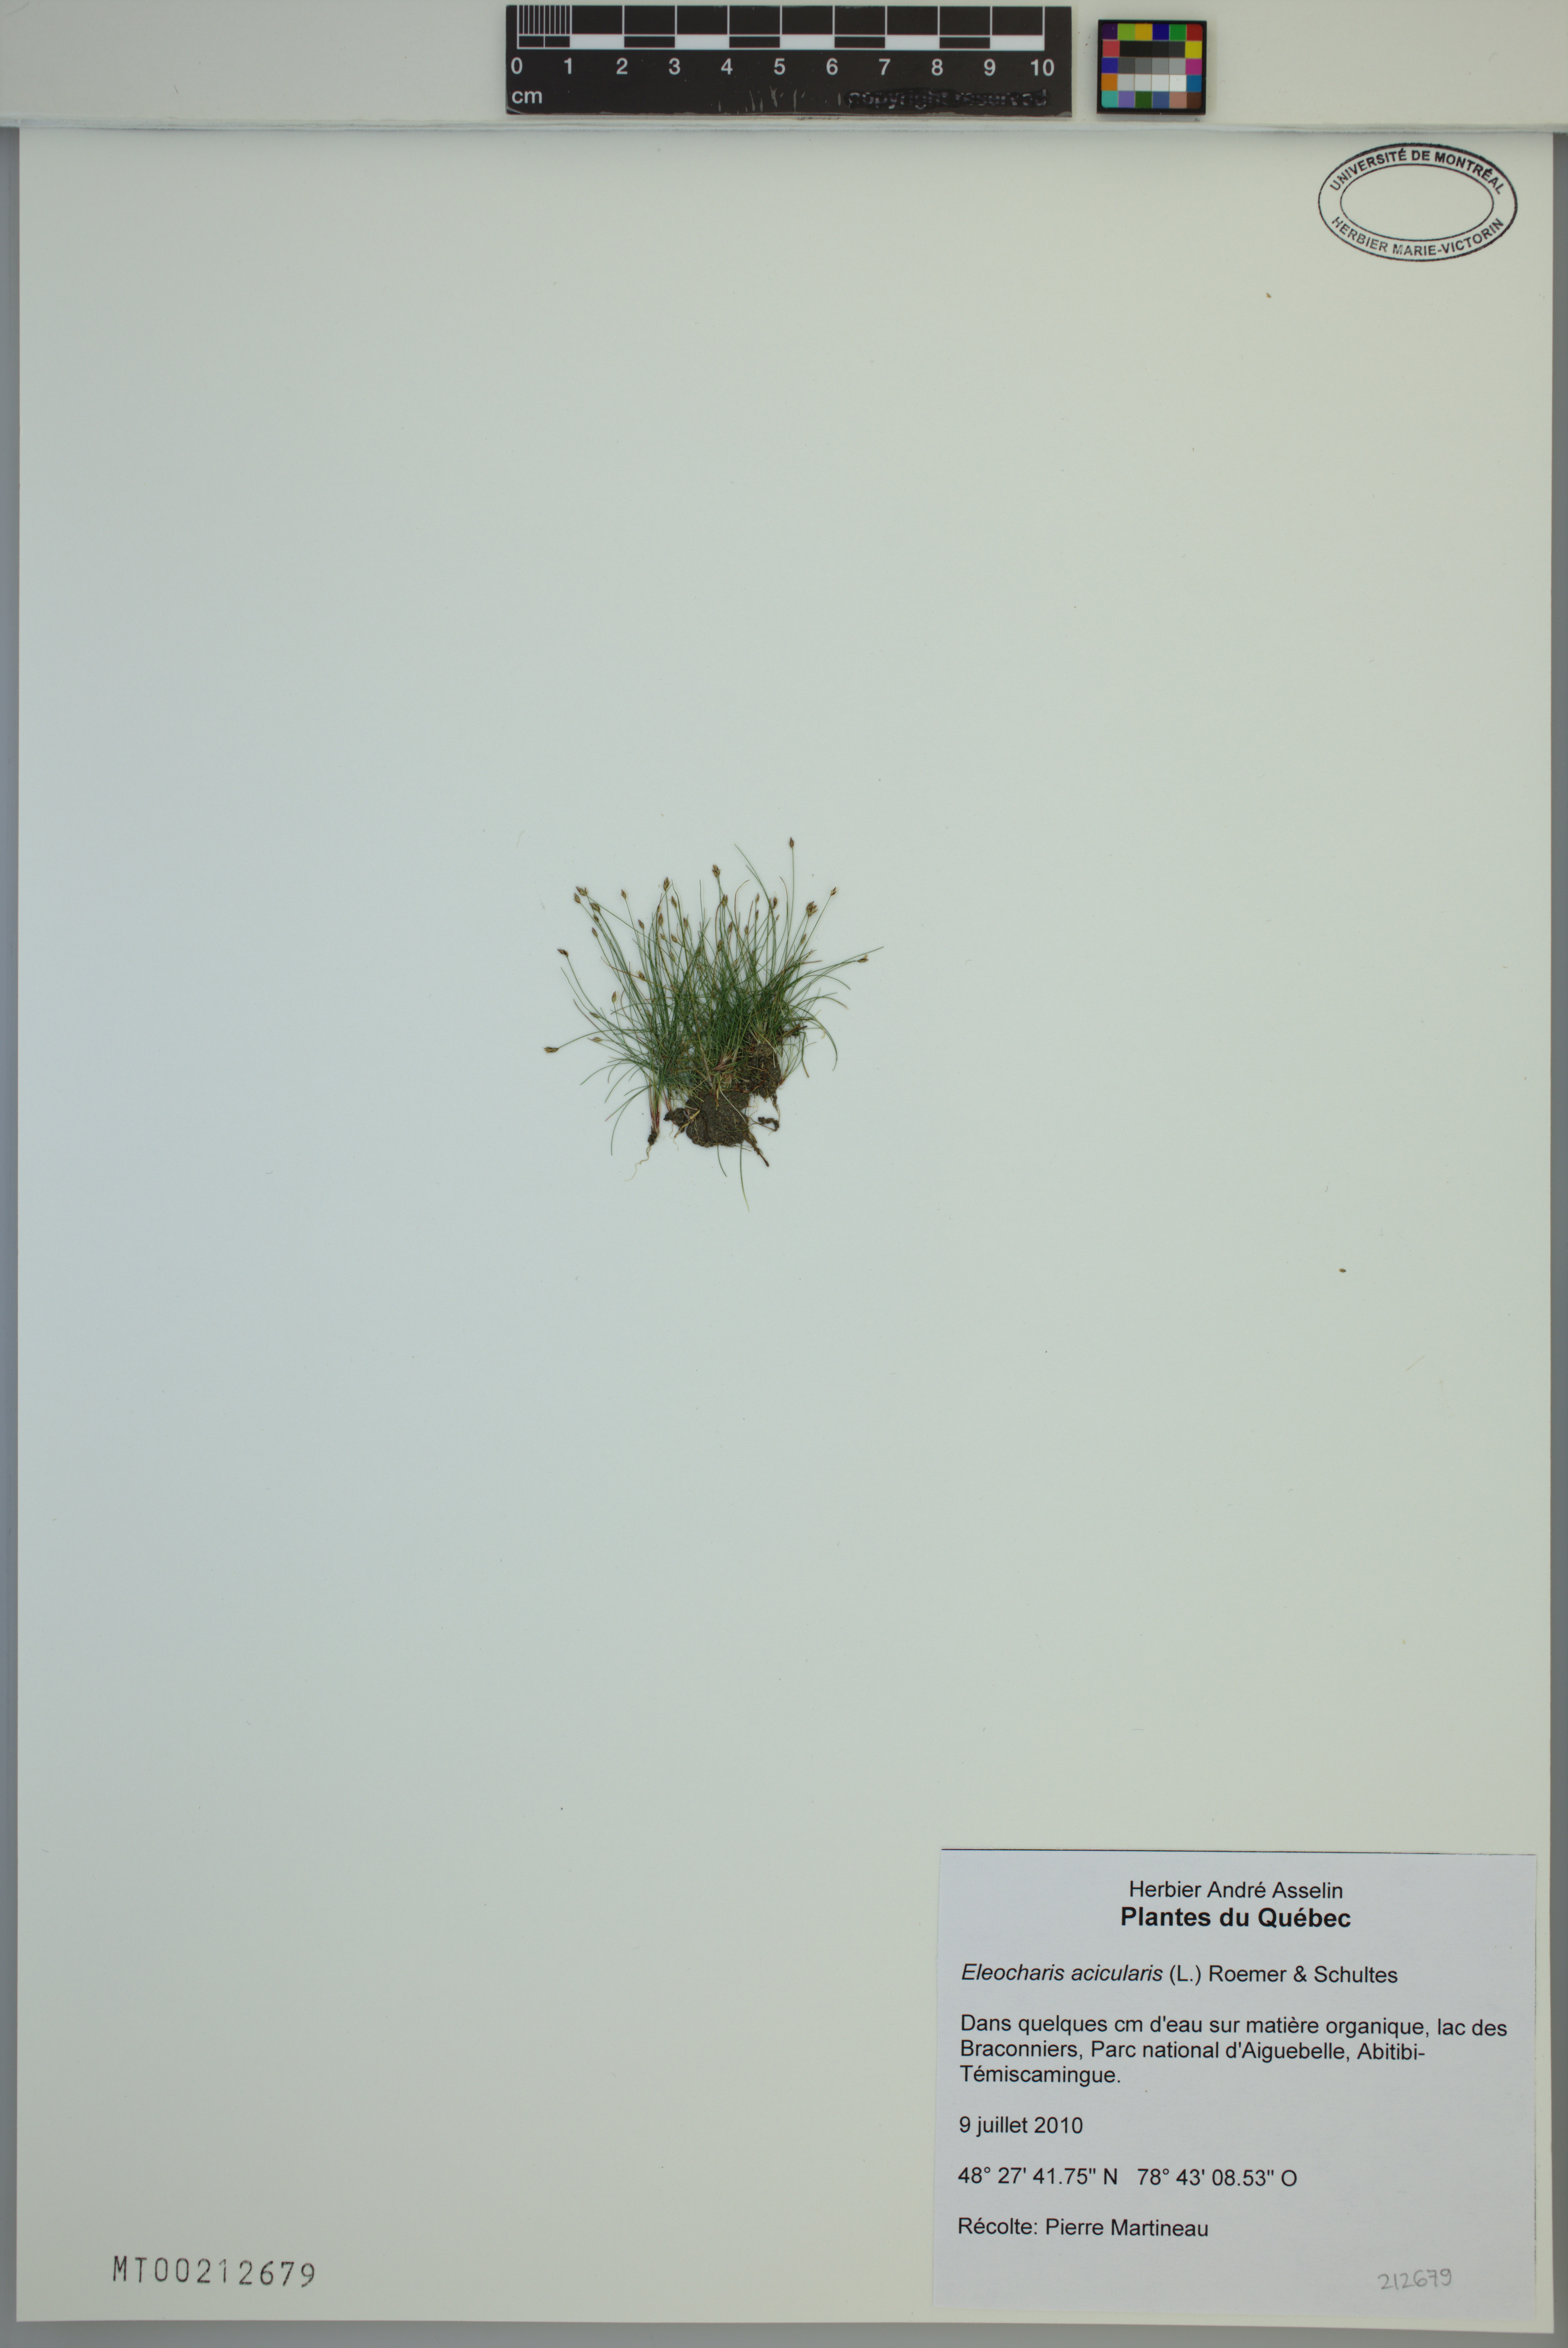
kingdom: Plantae
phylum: Tracheophyta
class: Liliopsida
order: Poales
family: Cyperaceae
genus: Eleocharis
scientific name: Eleocharis acicularis
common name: Needle spike-rush
